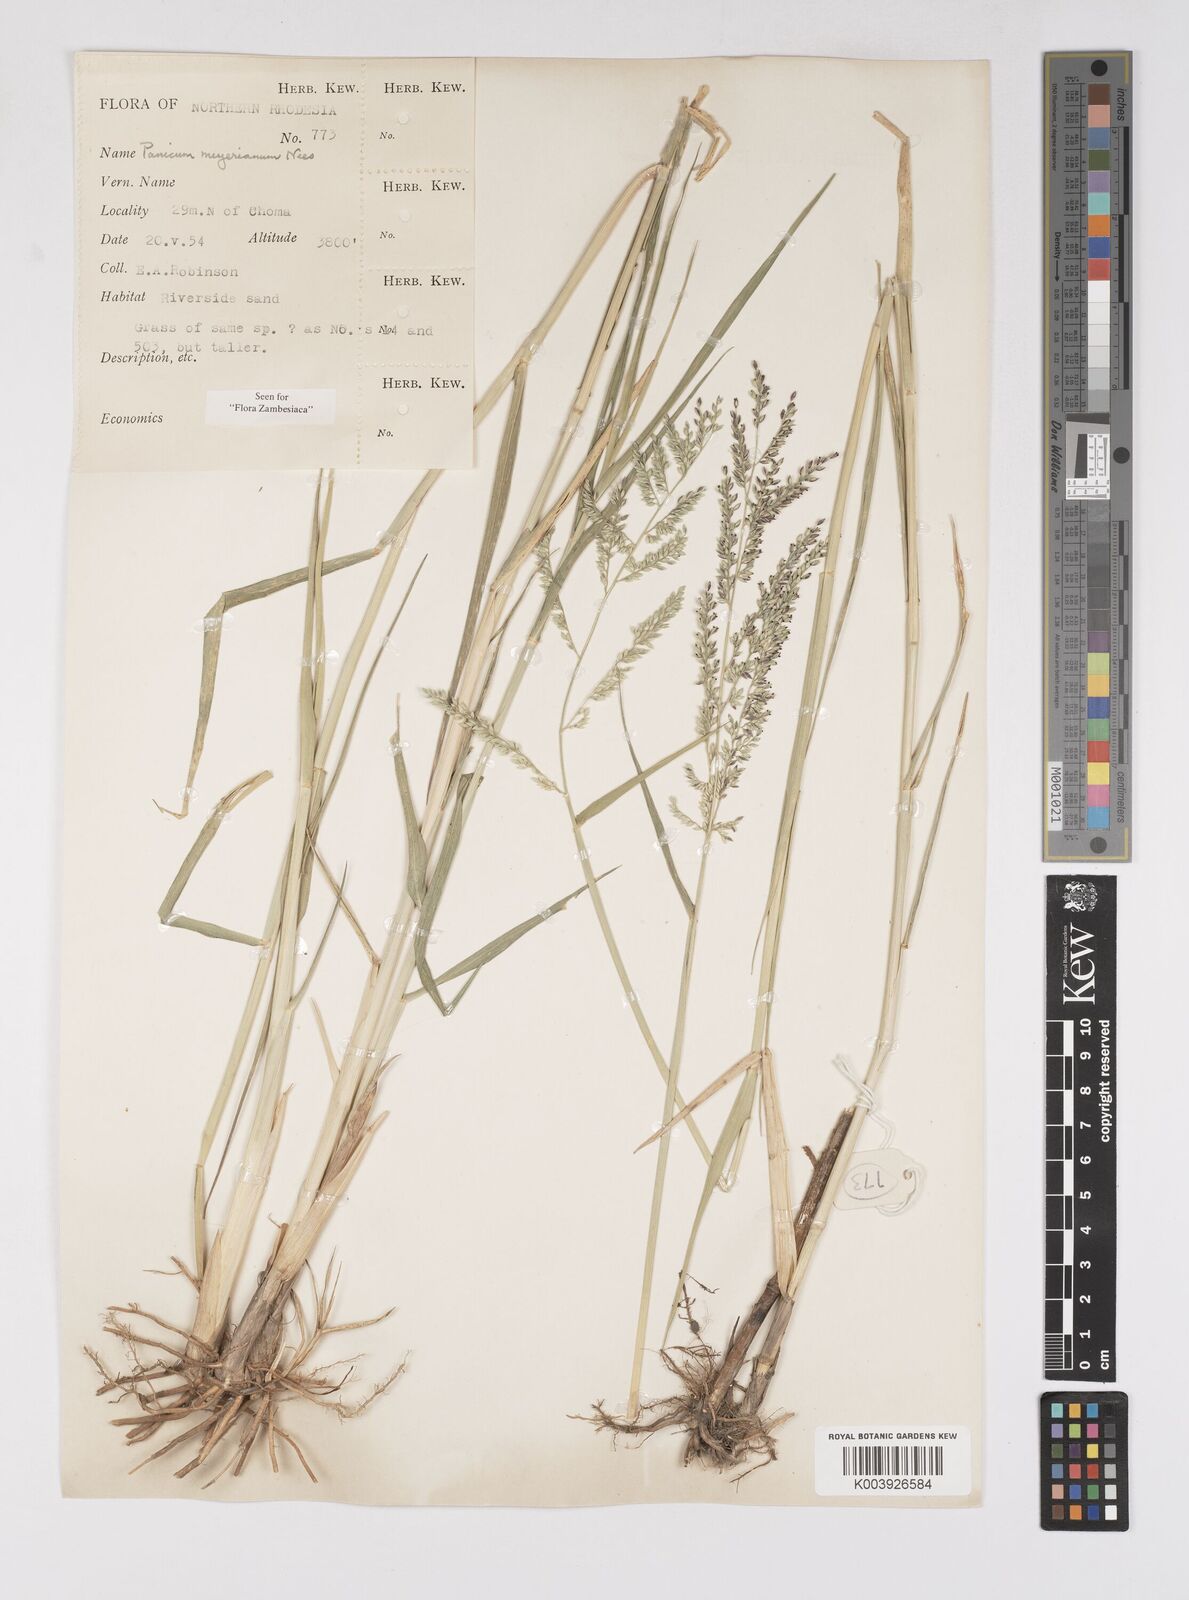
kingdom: Plantae
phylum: Tracheophyta
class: Liliopsida
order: Poales
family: Poaceae
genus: Eriochloa
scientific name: Eriochloa meyeriana
